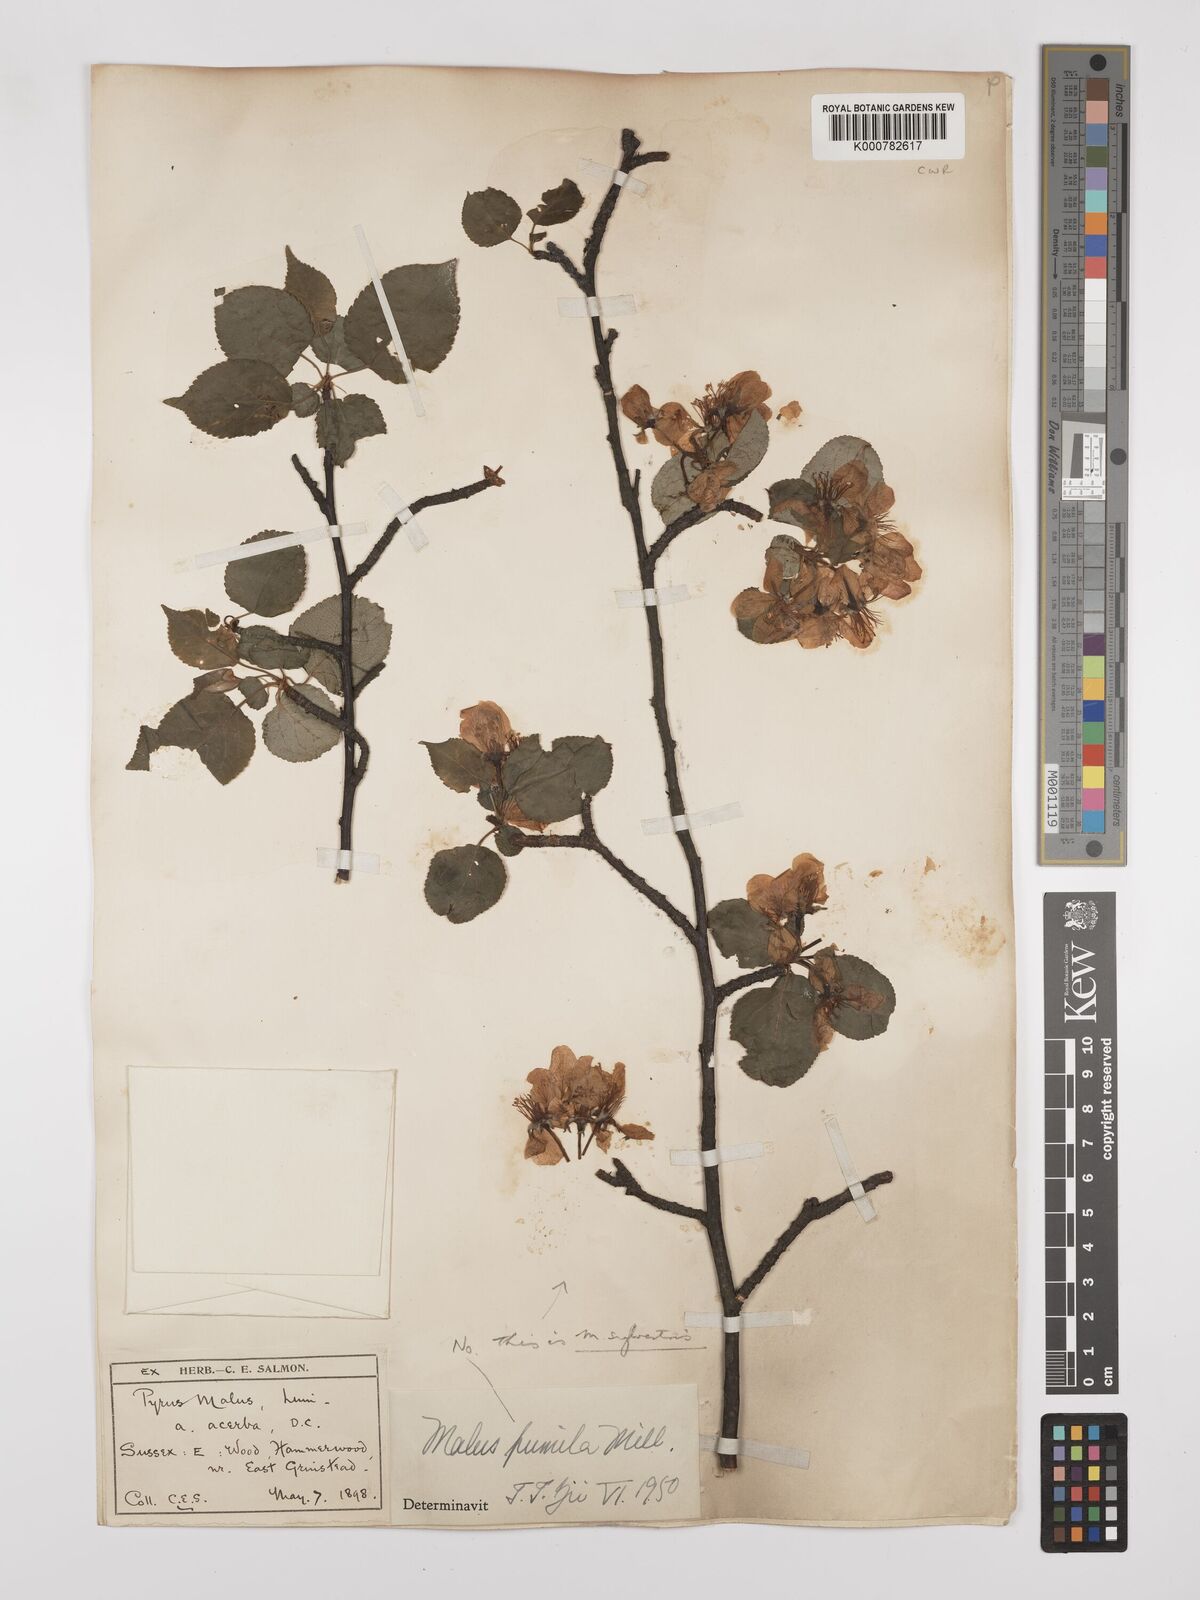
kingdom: Plantae
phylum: Tracheophyta
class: Magnoliopsida
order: Rosales
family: Rosaceae
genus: Malus
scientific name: Malus domestica
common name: Apple
